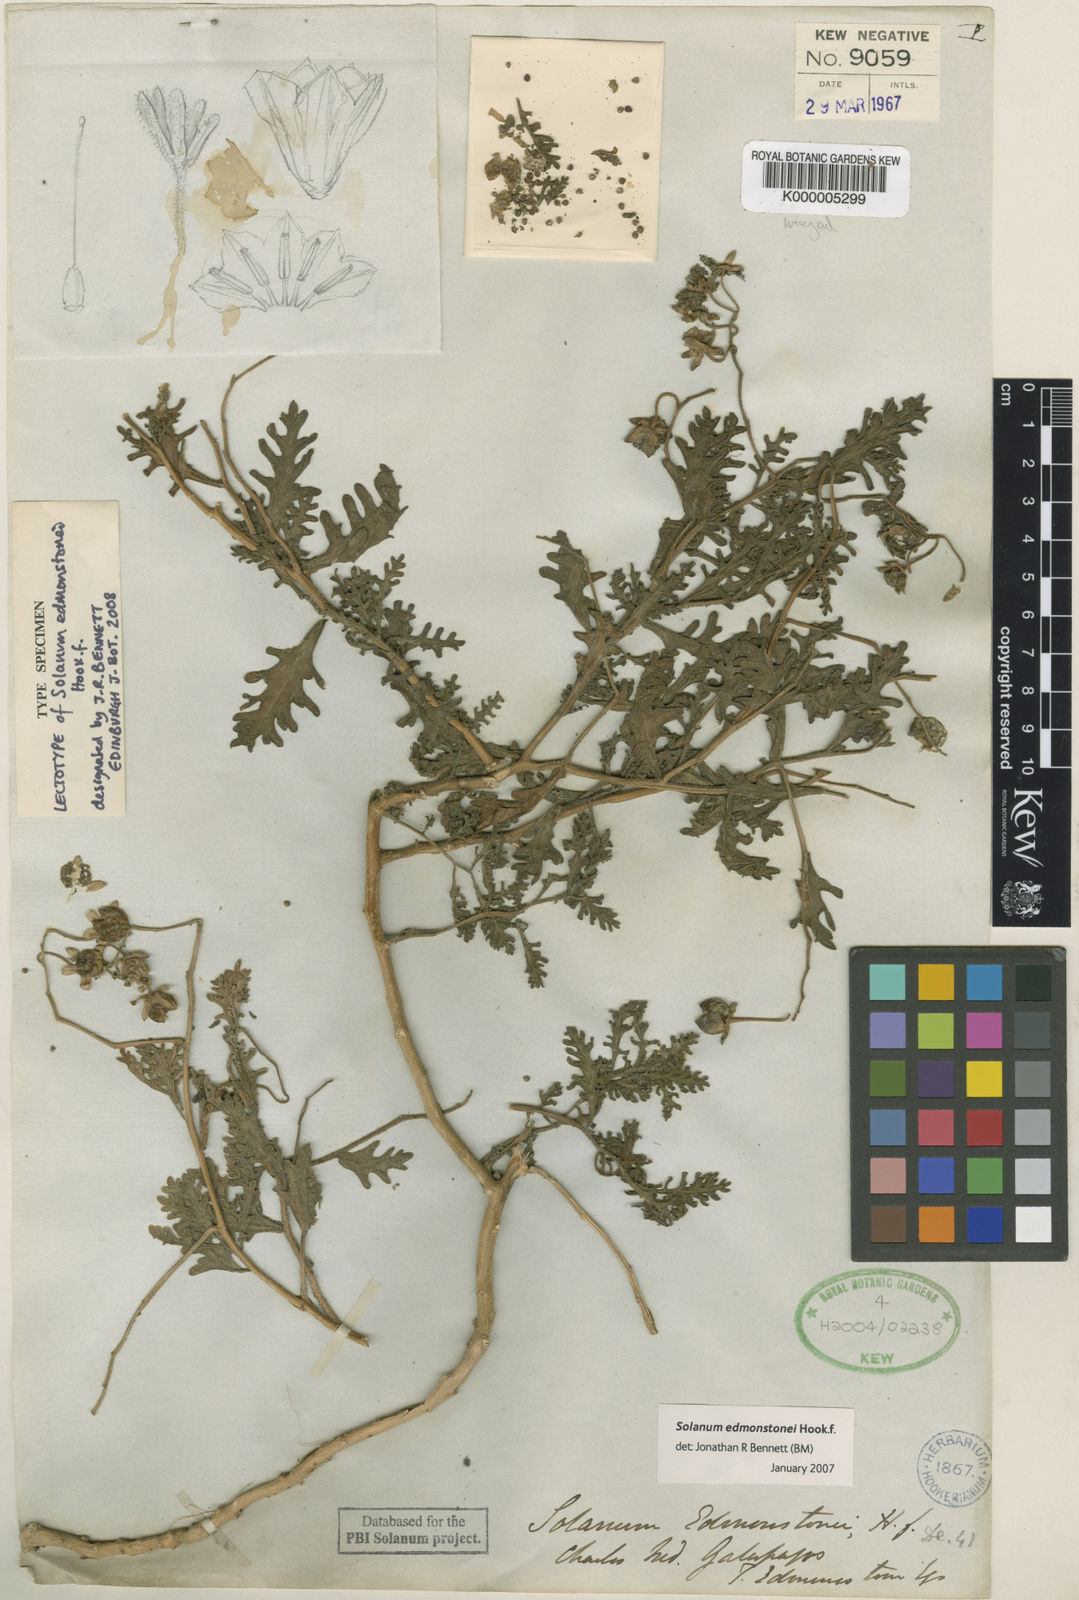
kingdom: Plantae
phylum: Tracheophyta
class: Magnoliopsida
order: Solanales
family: Solanaceae
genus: Solanum
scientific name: Solanum
